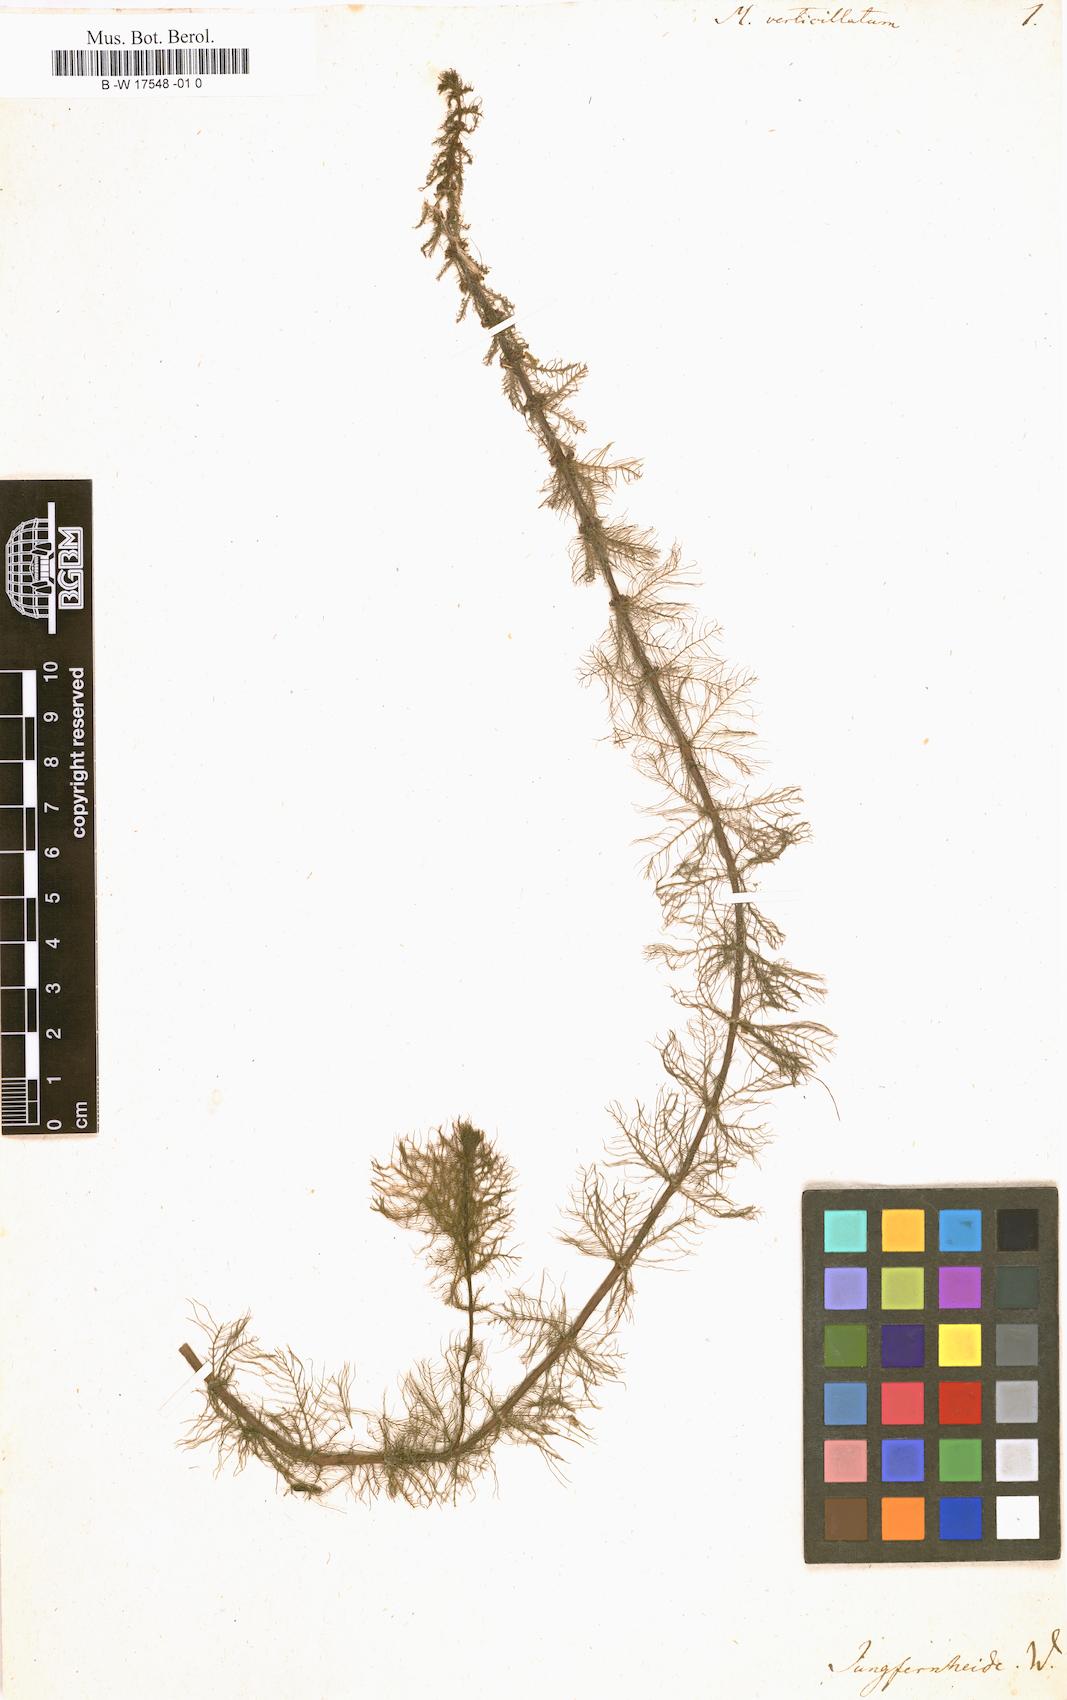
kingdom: Plantae
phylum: Tracheophyta
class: Magnoliopsida
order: Saxifragales
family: Haloragaceae
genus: Myriophyllum
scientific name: Myriophyllum verticillatum
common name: Whorled water-milfoil
